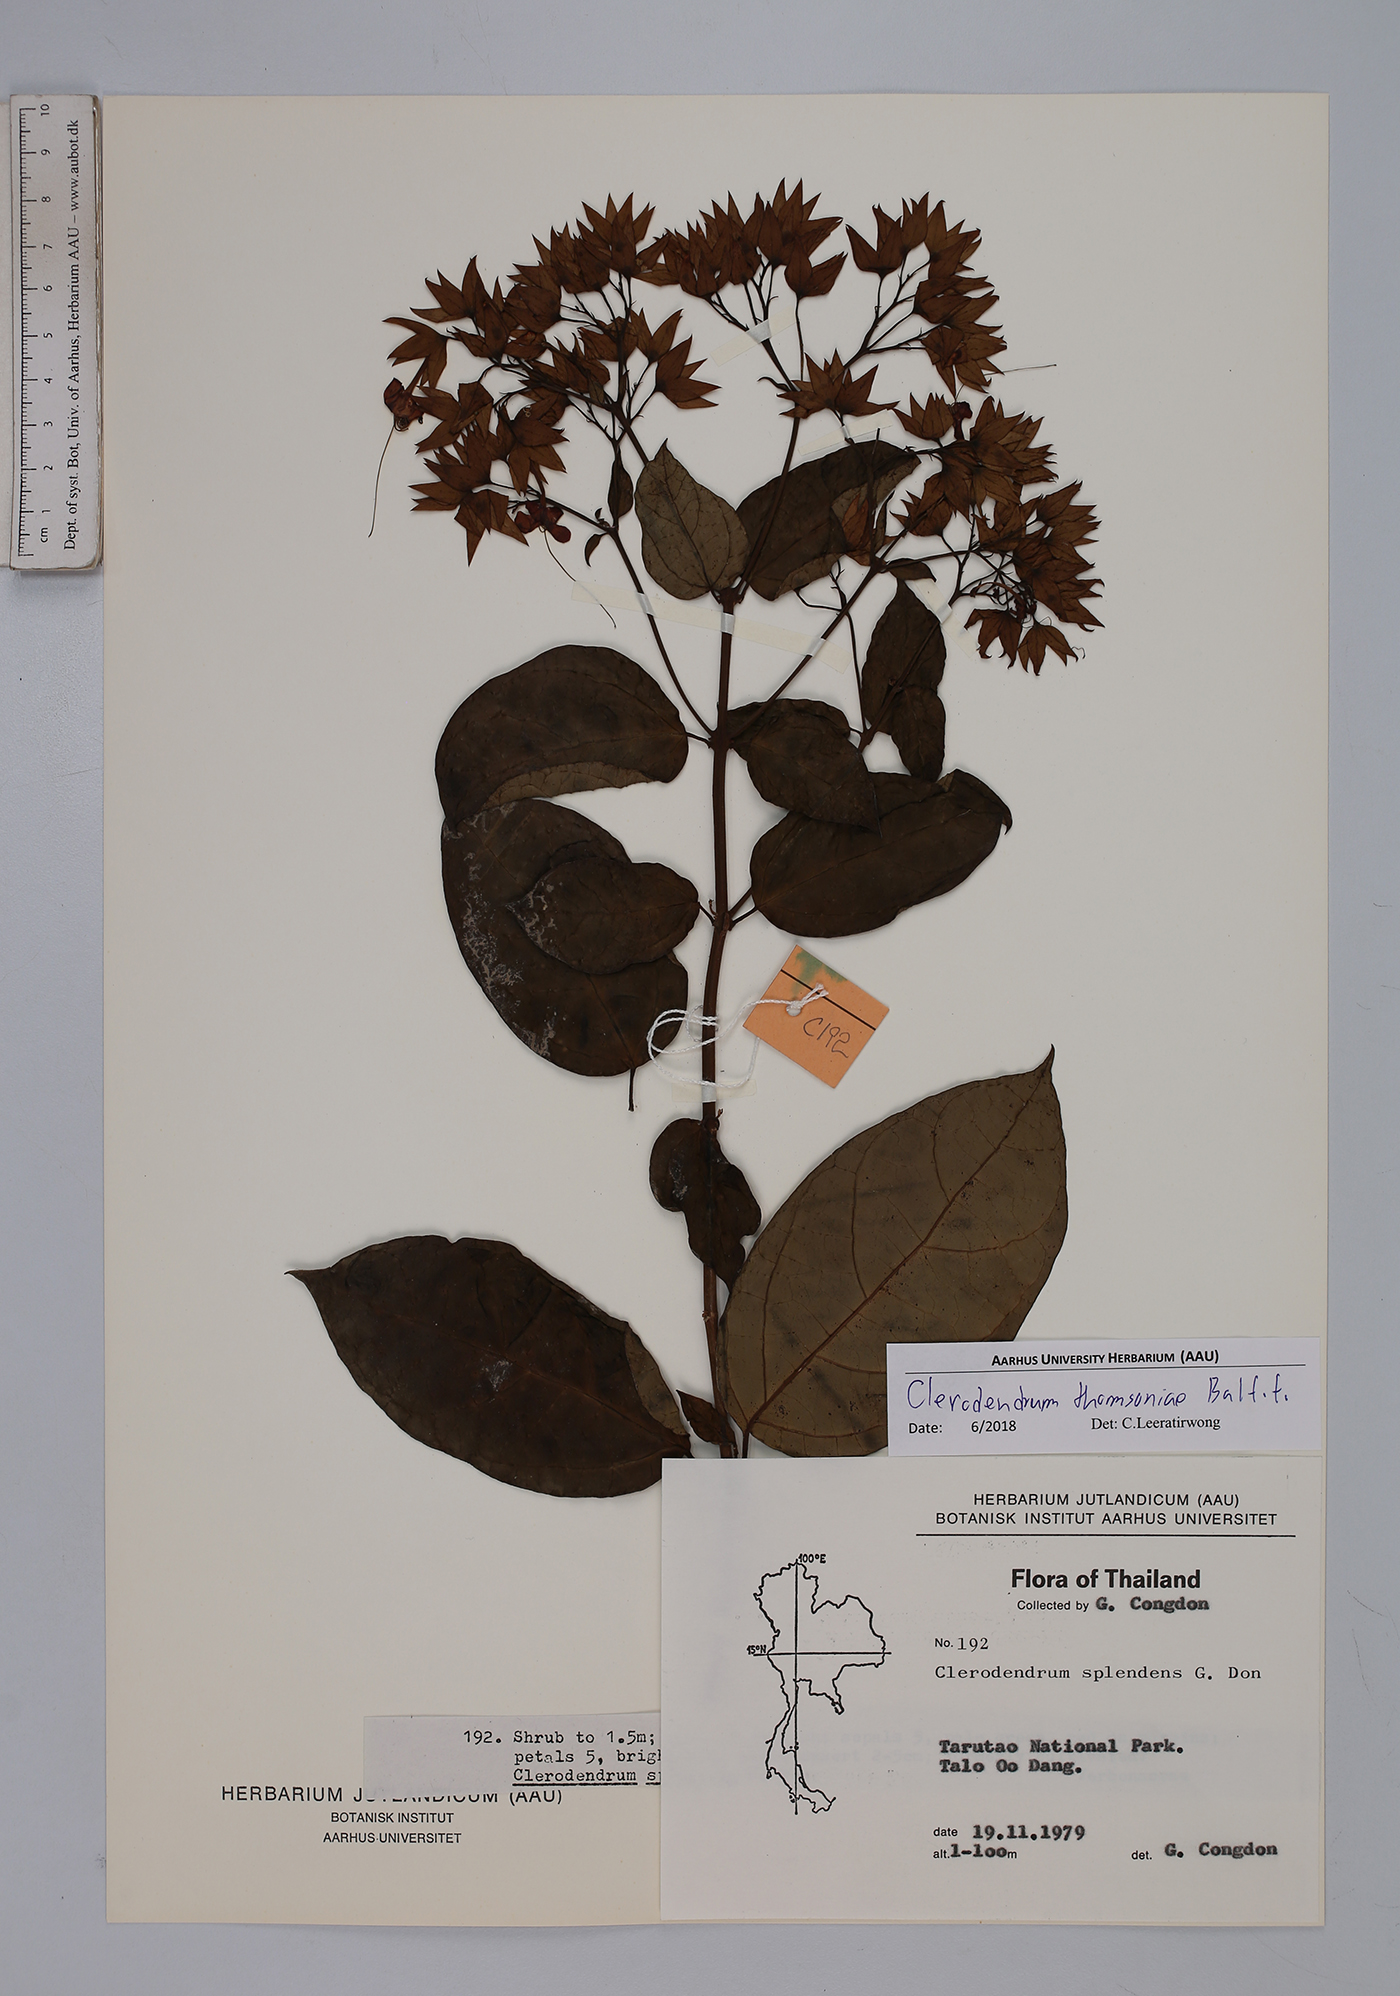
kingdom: Plantae
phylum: Tracheophyta
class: Magnoliopsida
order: Lamiales
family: Lamiaceae
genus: Clerodendrum
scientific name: Clerodendrum thomsoniae
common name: Bagflower
